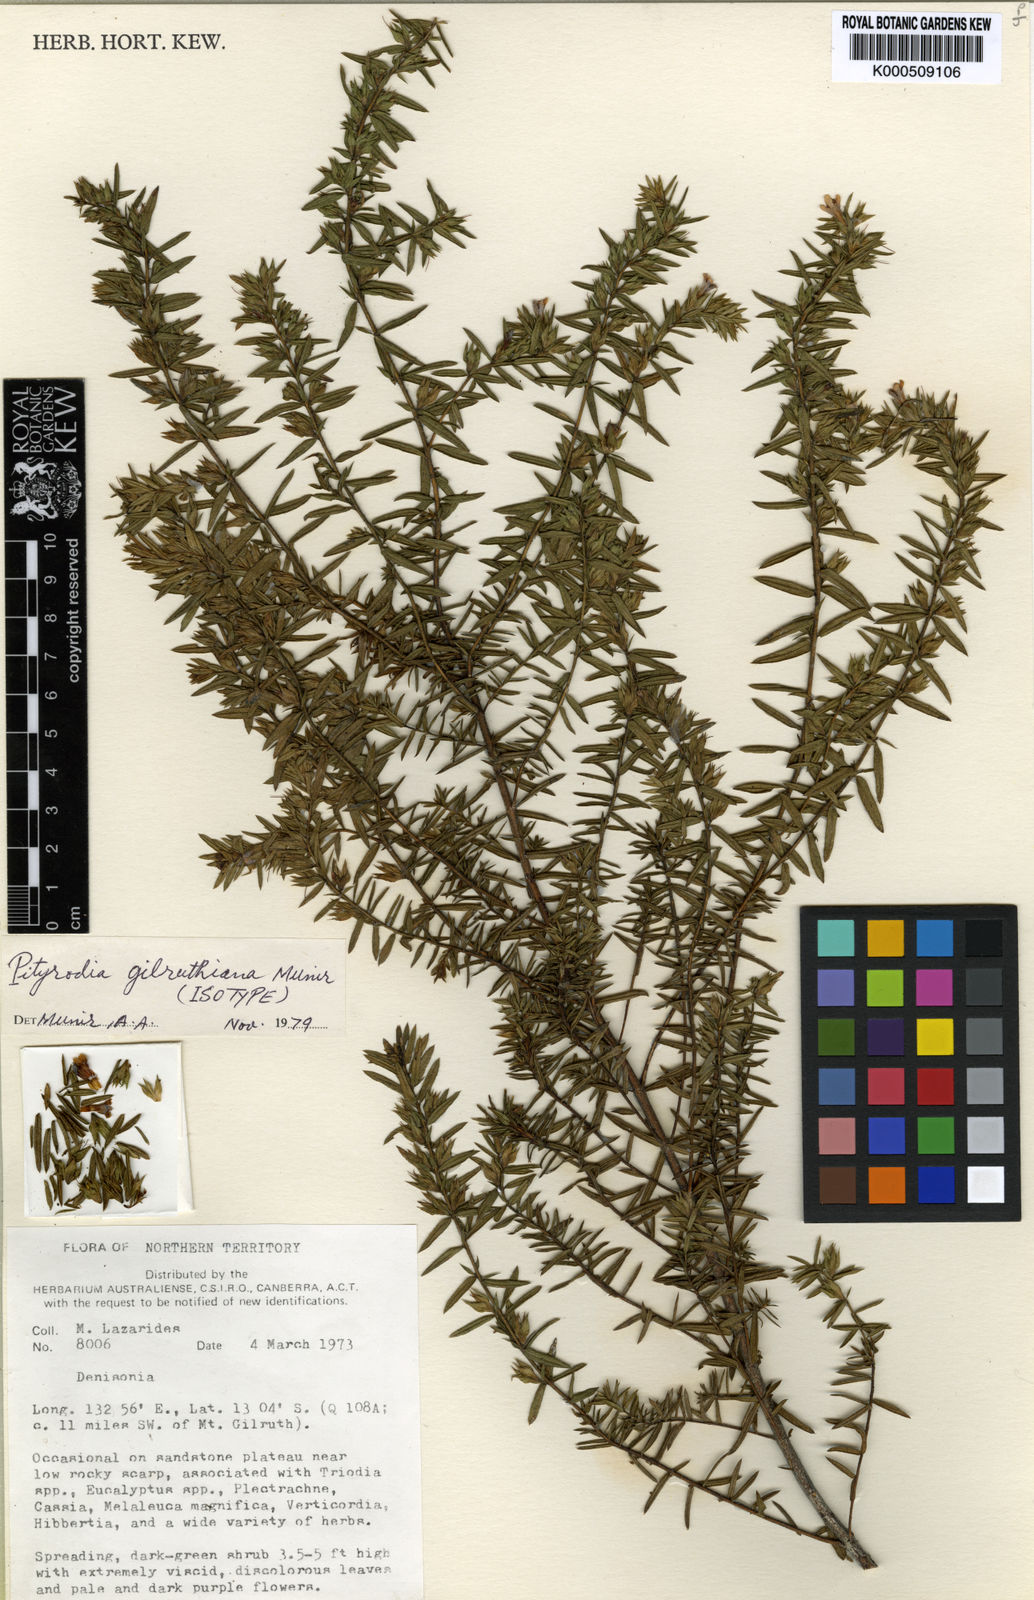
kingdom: Plantae
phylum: Tracheophyta
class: Magnoliopsida
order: Lamiales
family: Lamiaceae
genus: Pityrodia
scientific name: Pityrodia
